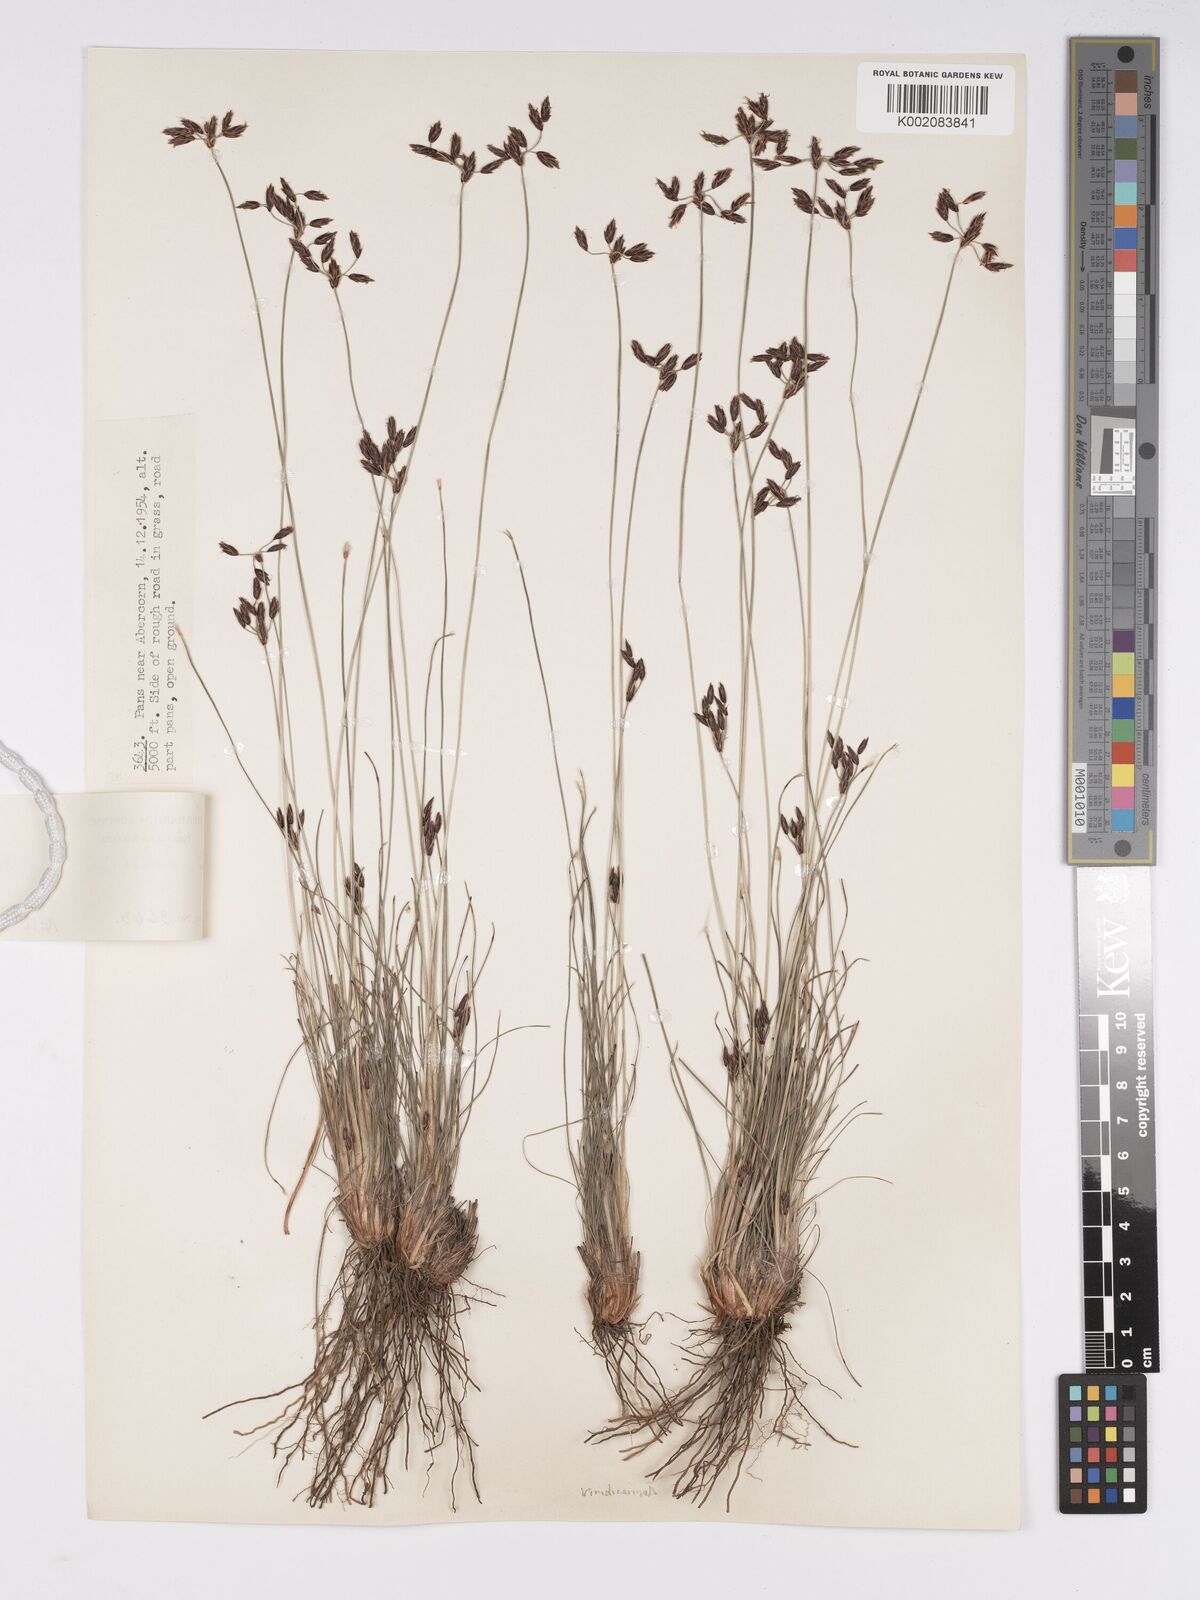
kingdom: Plantae
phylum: Tracheophyta
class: Liliopsida
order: Poales
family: Cyperaceae
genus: Bulbostylis
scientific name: Bulbostylis hispidula
